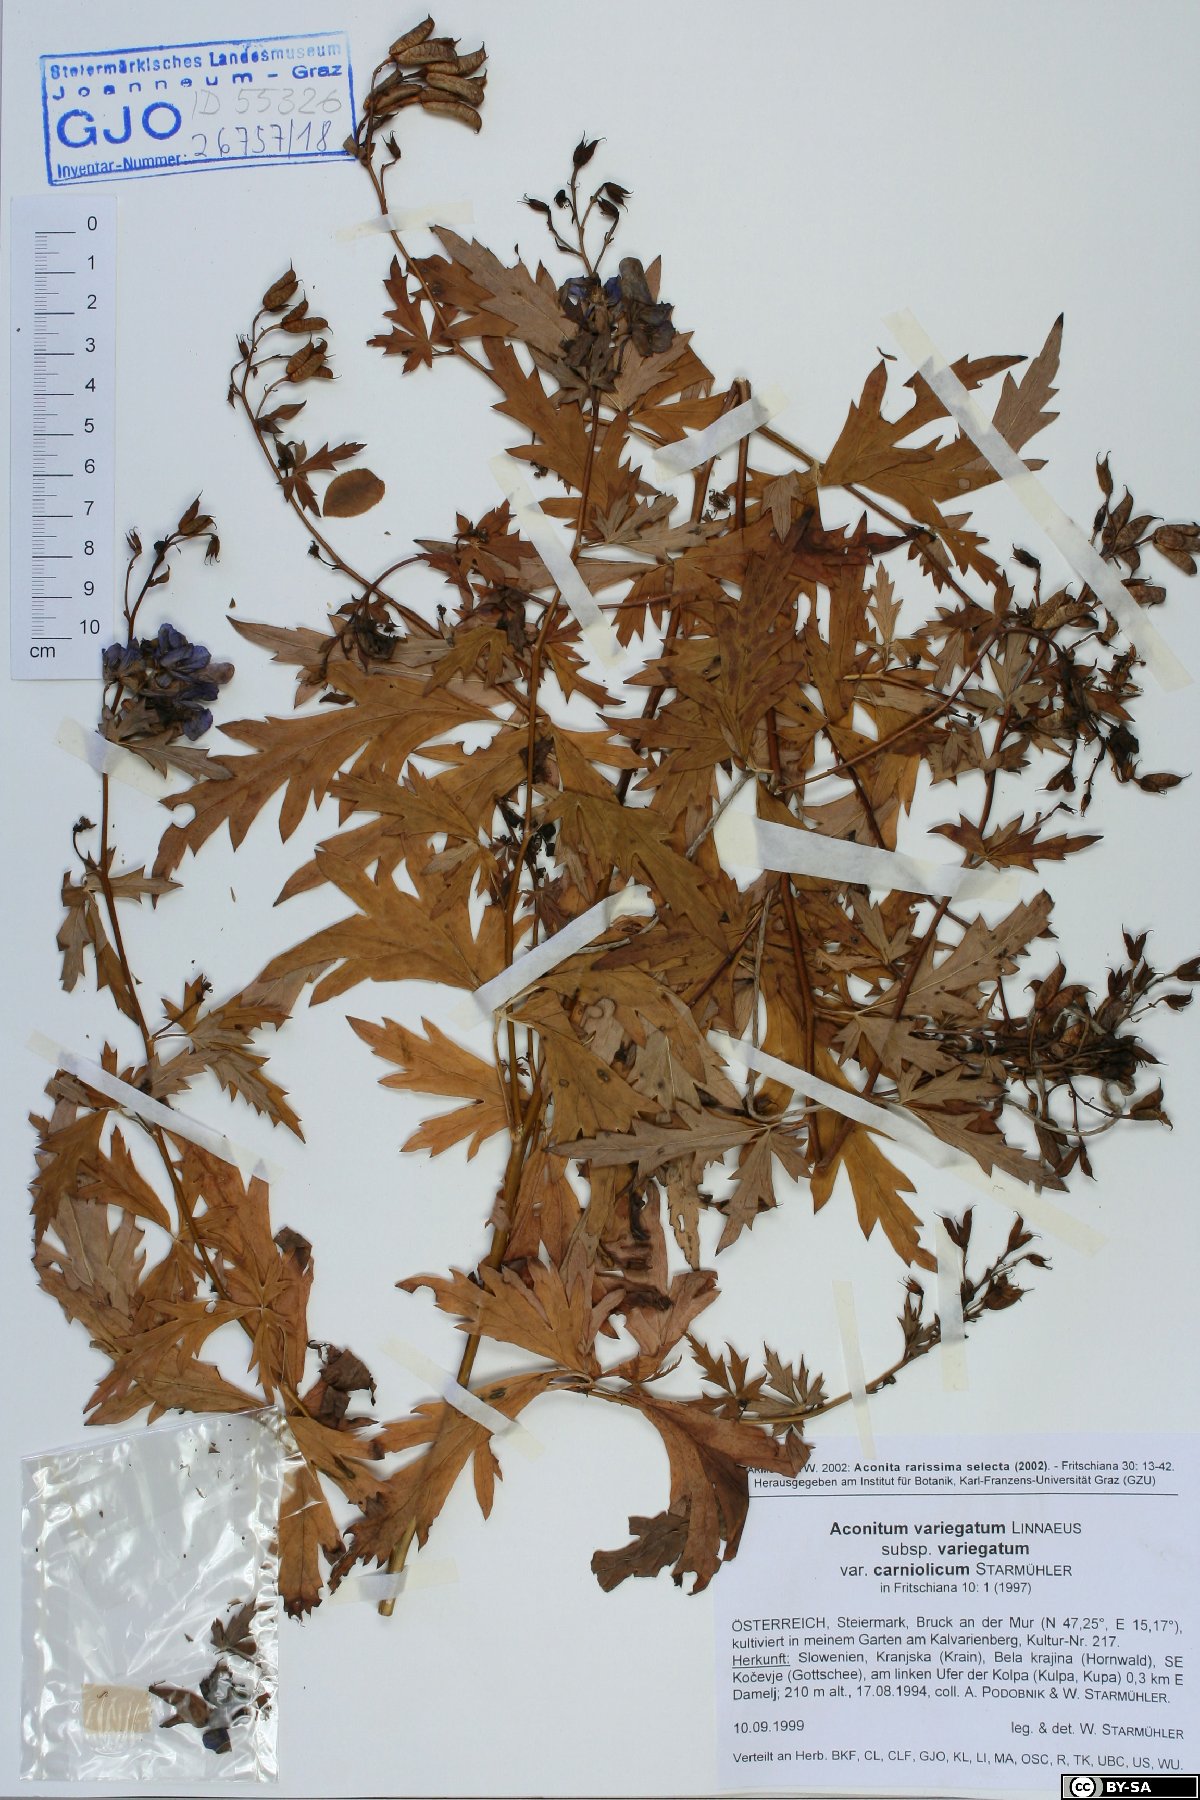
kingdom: Plantae
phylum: Tracheophyta
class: Magnoliopsida
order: Ranunculales
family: Ranunculaceae
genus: Aconitum
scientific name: Aconitum variegatum
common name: Manchurian monkshood
